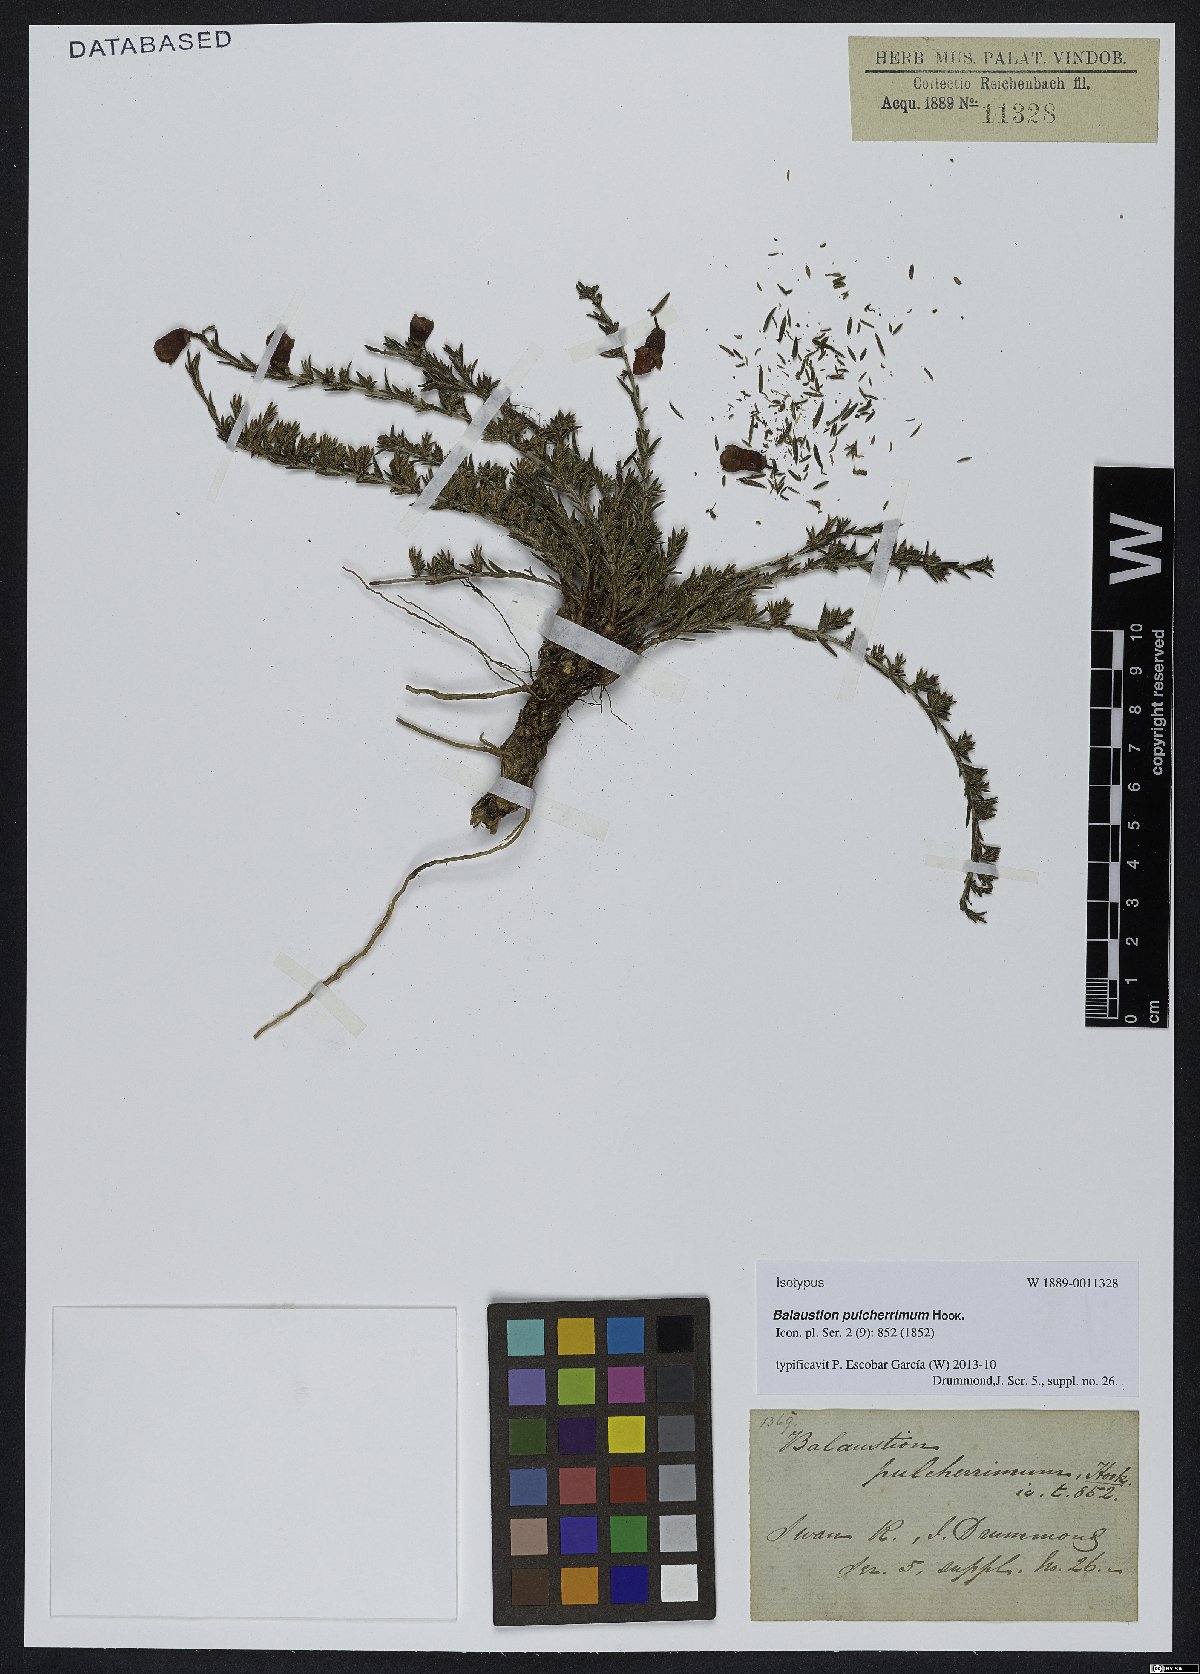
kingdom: Plantae
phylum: Tracheophyta
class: Magnoliopsida
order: Myrtales
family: Myrtaceae
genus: Balaustion
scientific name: Balaustion pulcherrimum
